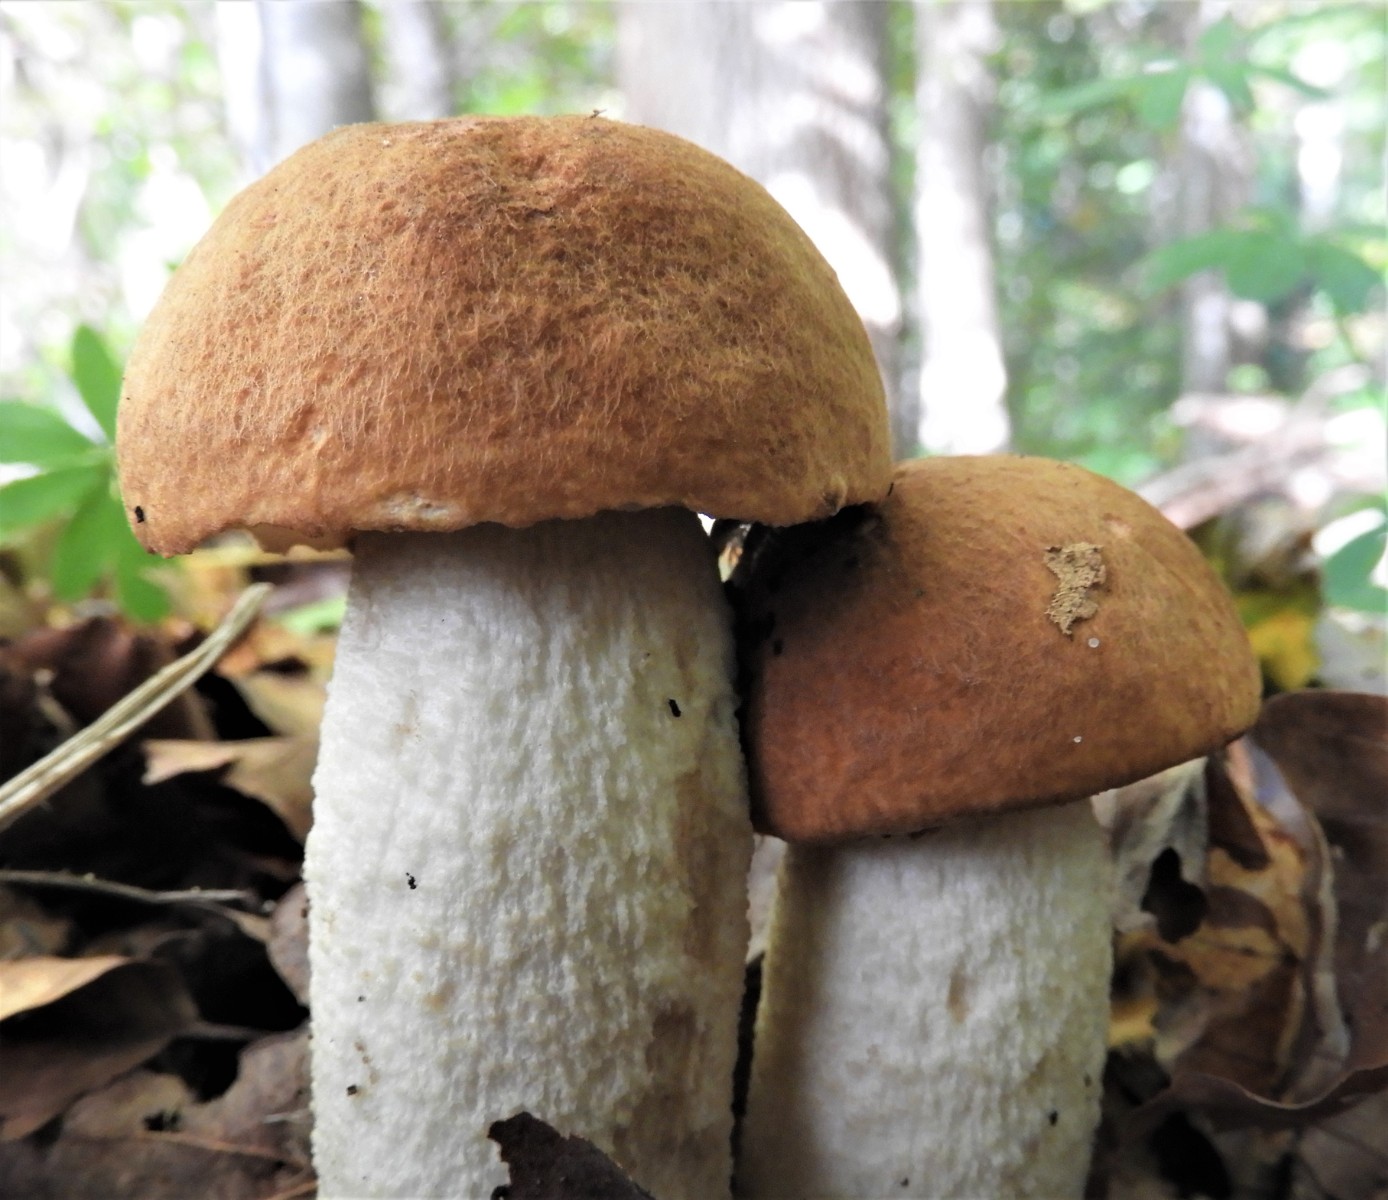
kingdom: Fungi
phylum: Basidiomycota
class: Agaricomycetes
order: Boletales
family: Boletaceae
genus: Leccinum
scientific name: Leccinum albostipitatum
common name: aspe-skælrørhat
